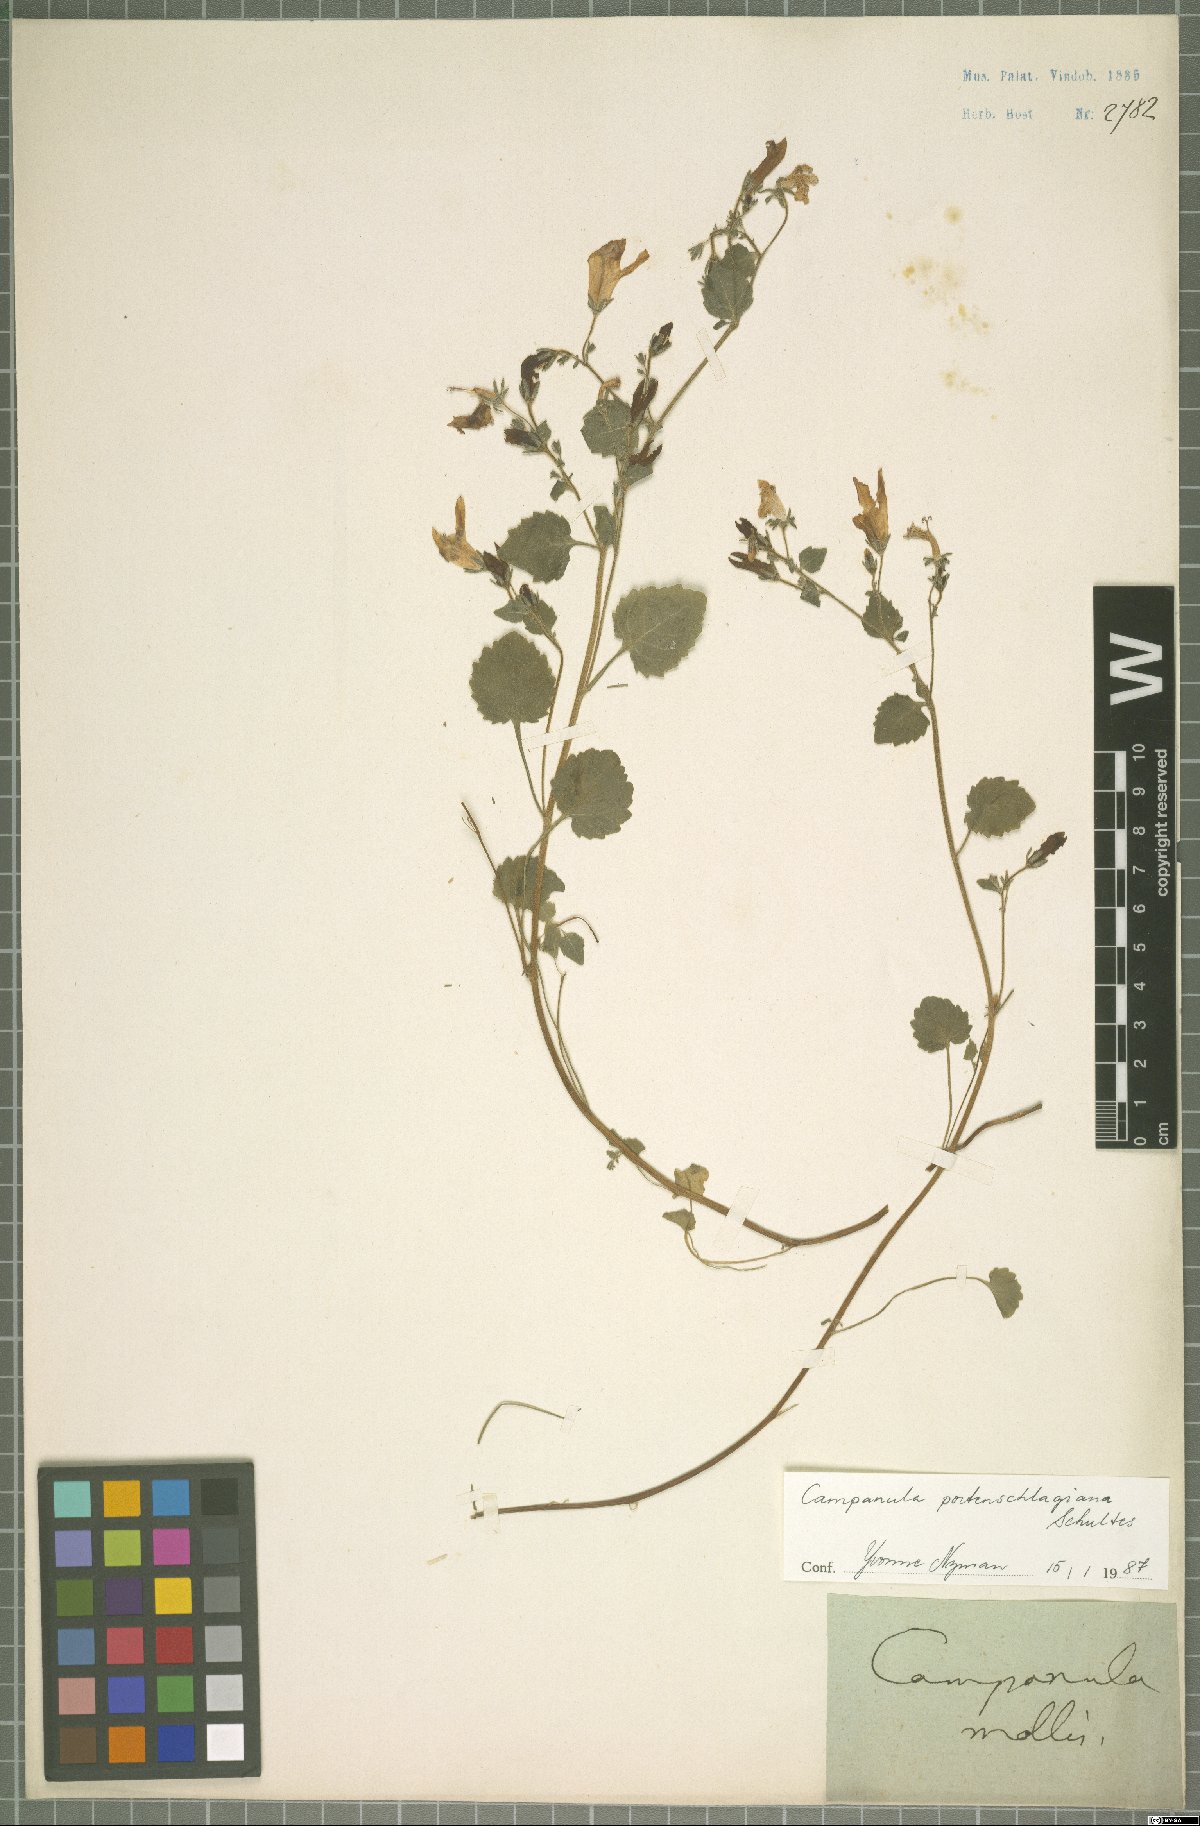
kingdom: Plantae
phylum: Tracheophyta
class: Magnoliopsida
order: Asterales
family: Campanulaceae
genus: Campanula
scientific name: Campanula portenschlagiana
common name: Adria bellflower
